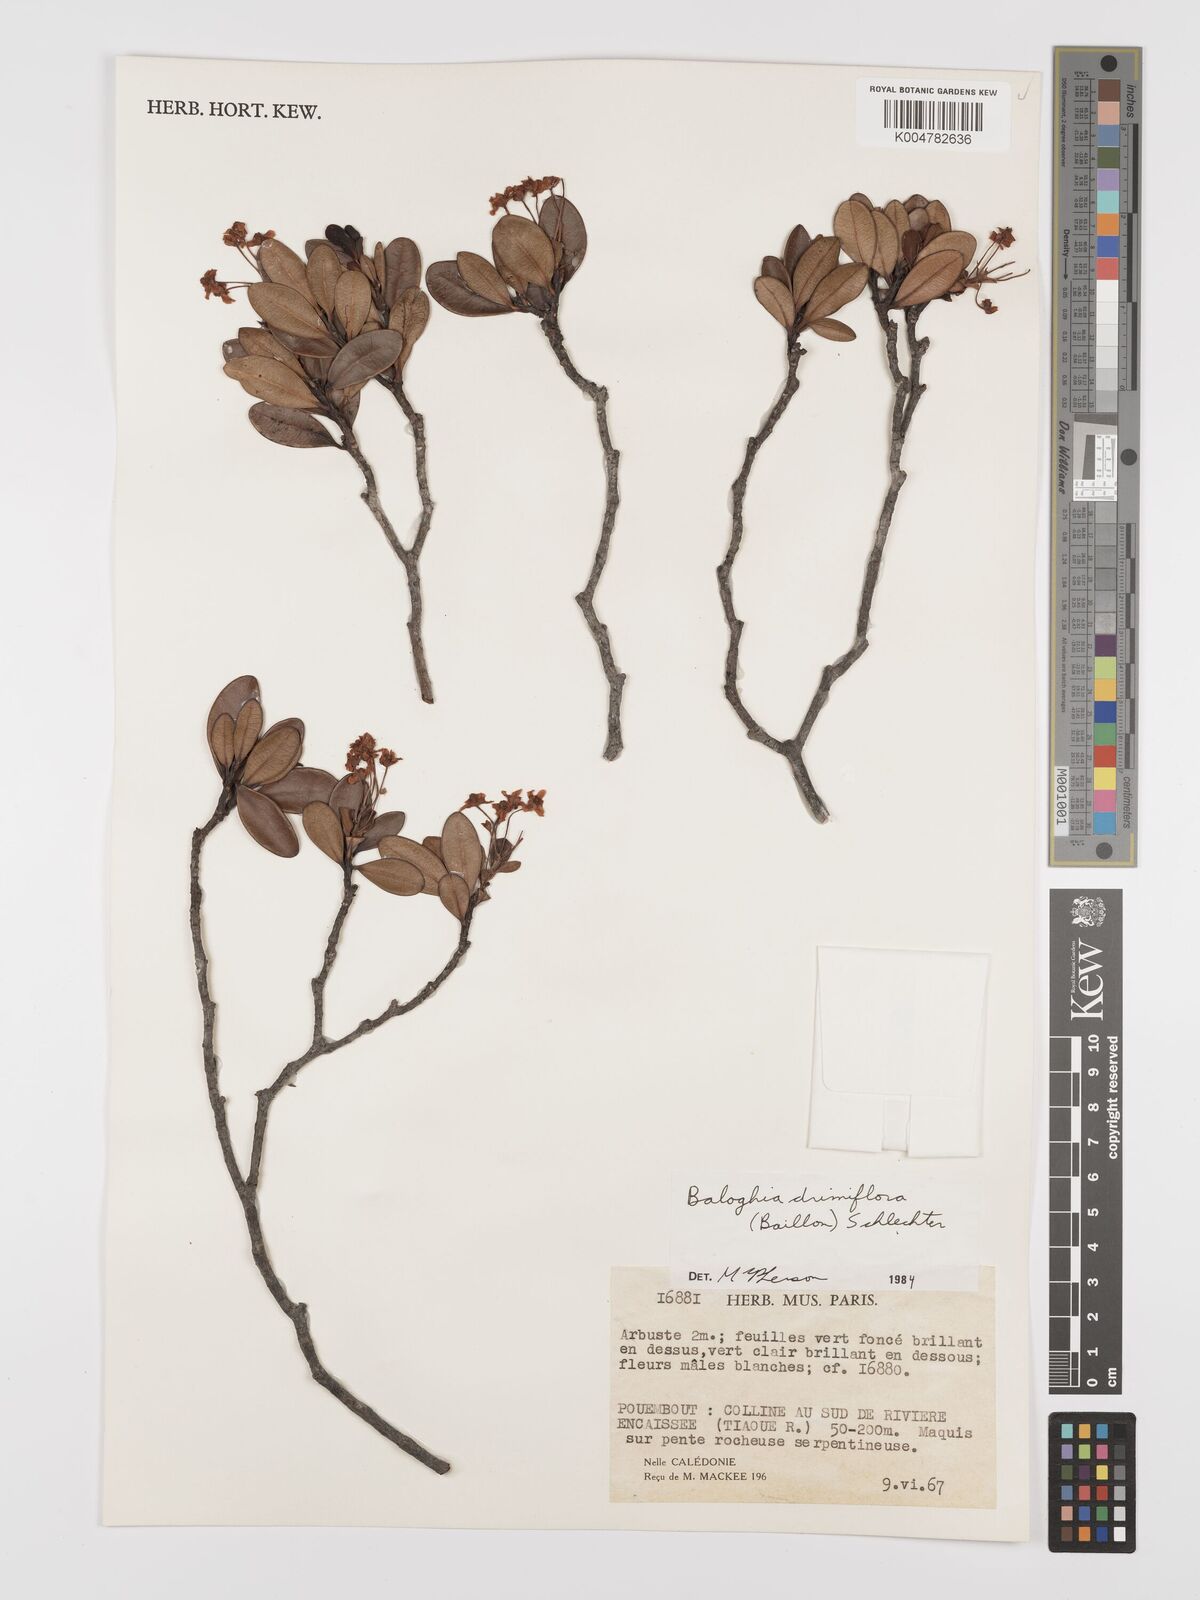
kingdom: Plantae
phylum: Tracheophyta
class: Magnoliopsida
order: Malpighiales
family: Euphorbiaceae
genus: Baloghia
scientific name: Baloghia drimiflora
